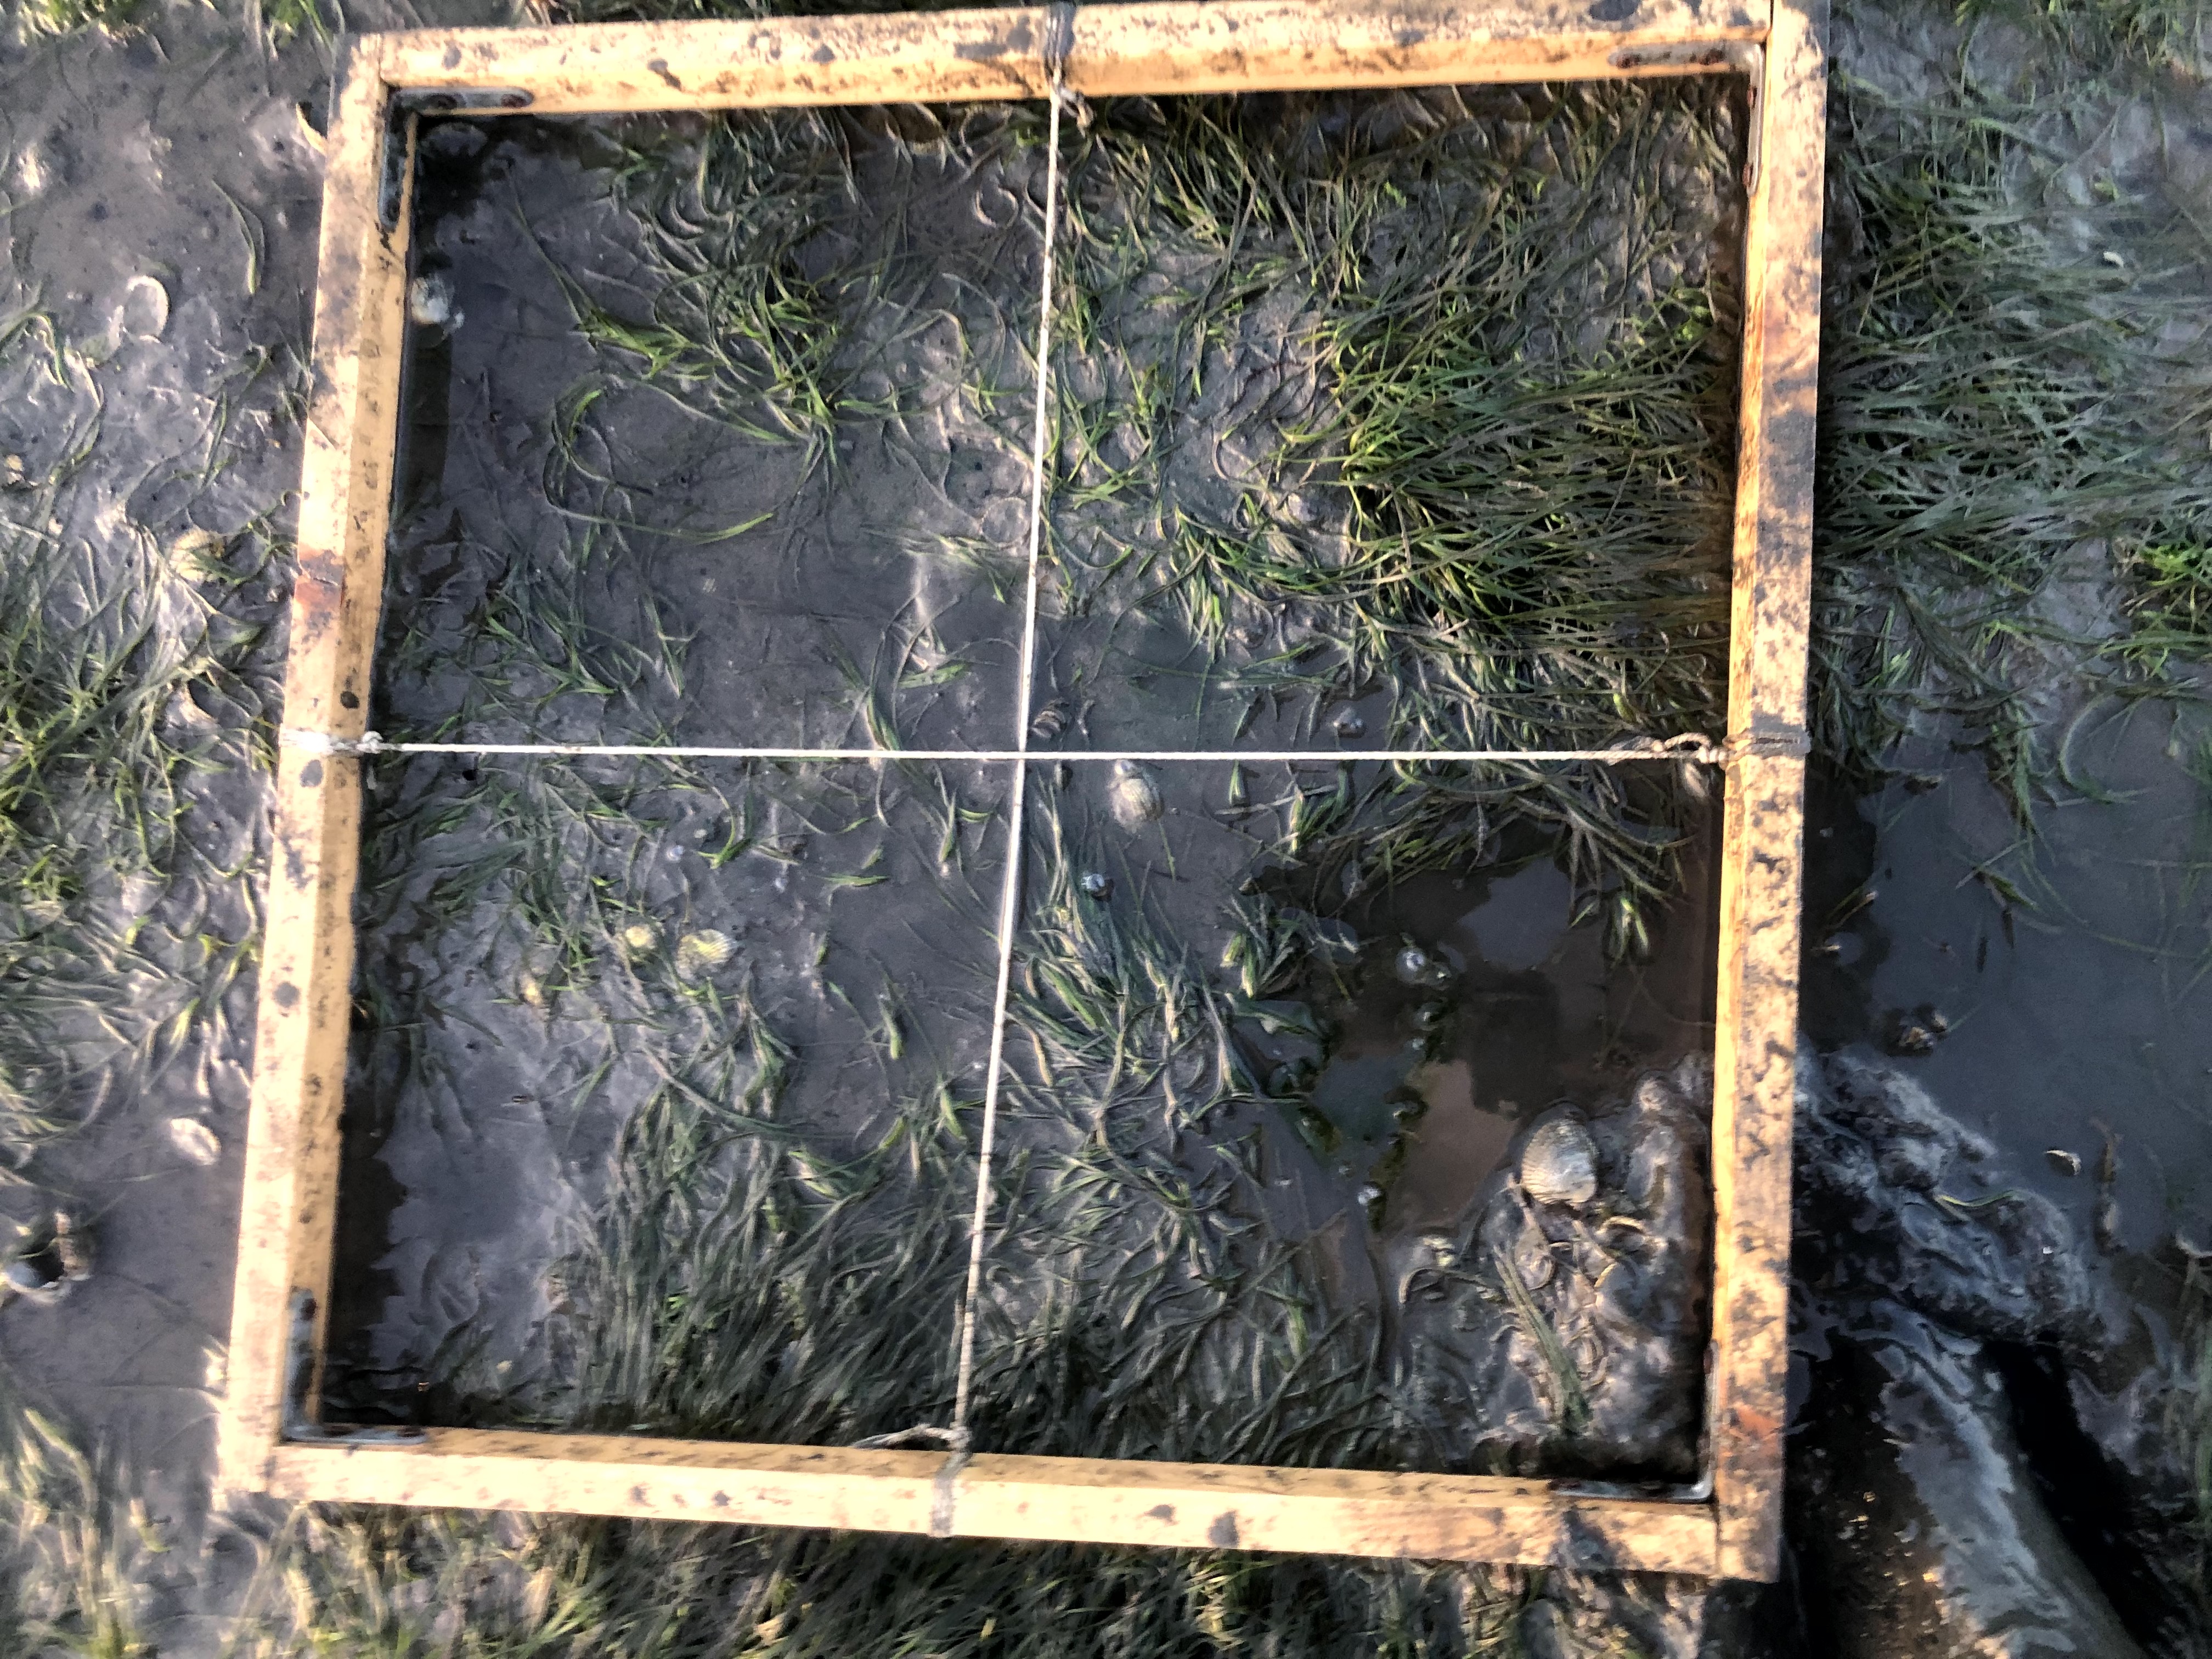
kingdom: Plantae
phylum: Tracheophyta
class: Liliopsida
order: Alismatales
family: Zosteraceae
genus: Zostera
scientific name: Zostera noltii
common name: Dwarf eelgrass
